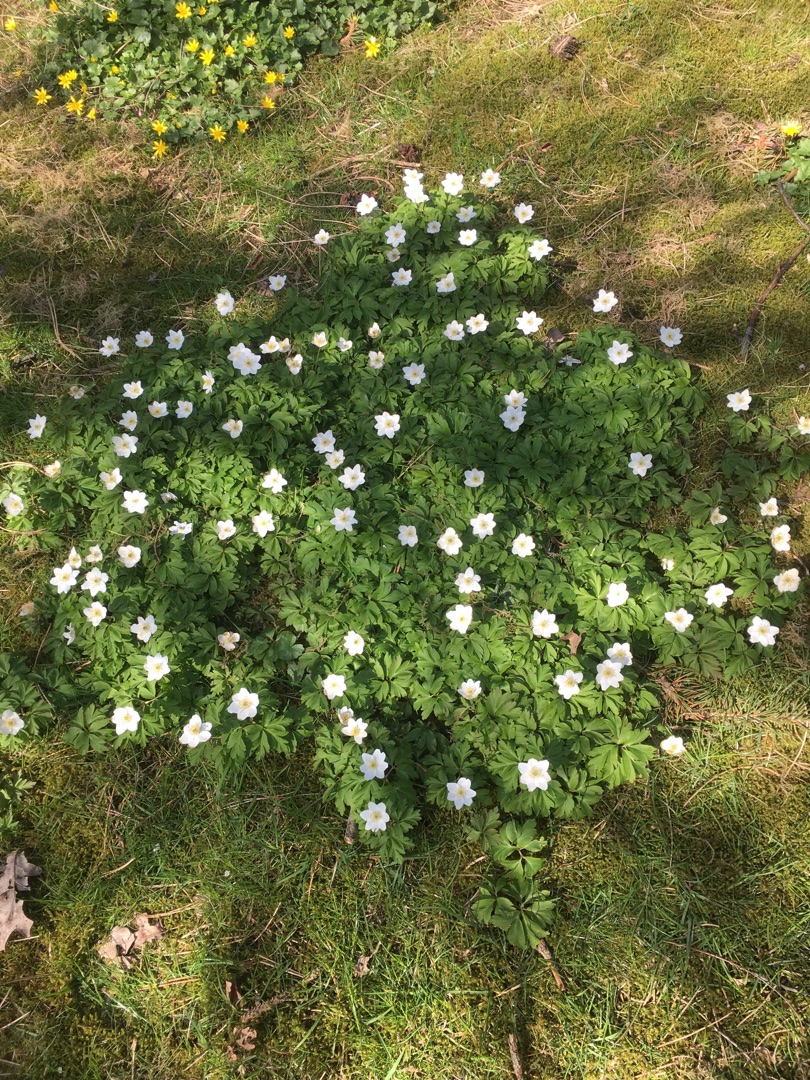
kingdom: Plantae
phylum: Tracheophyta
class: Magnoliopsida
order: Ranunculales
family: Ranunculaceae
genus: Anemone
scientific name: Anemone nemorosa
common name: Hvid anemone
